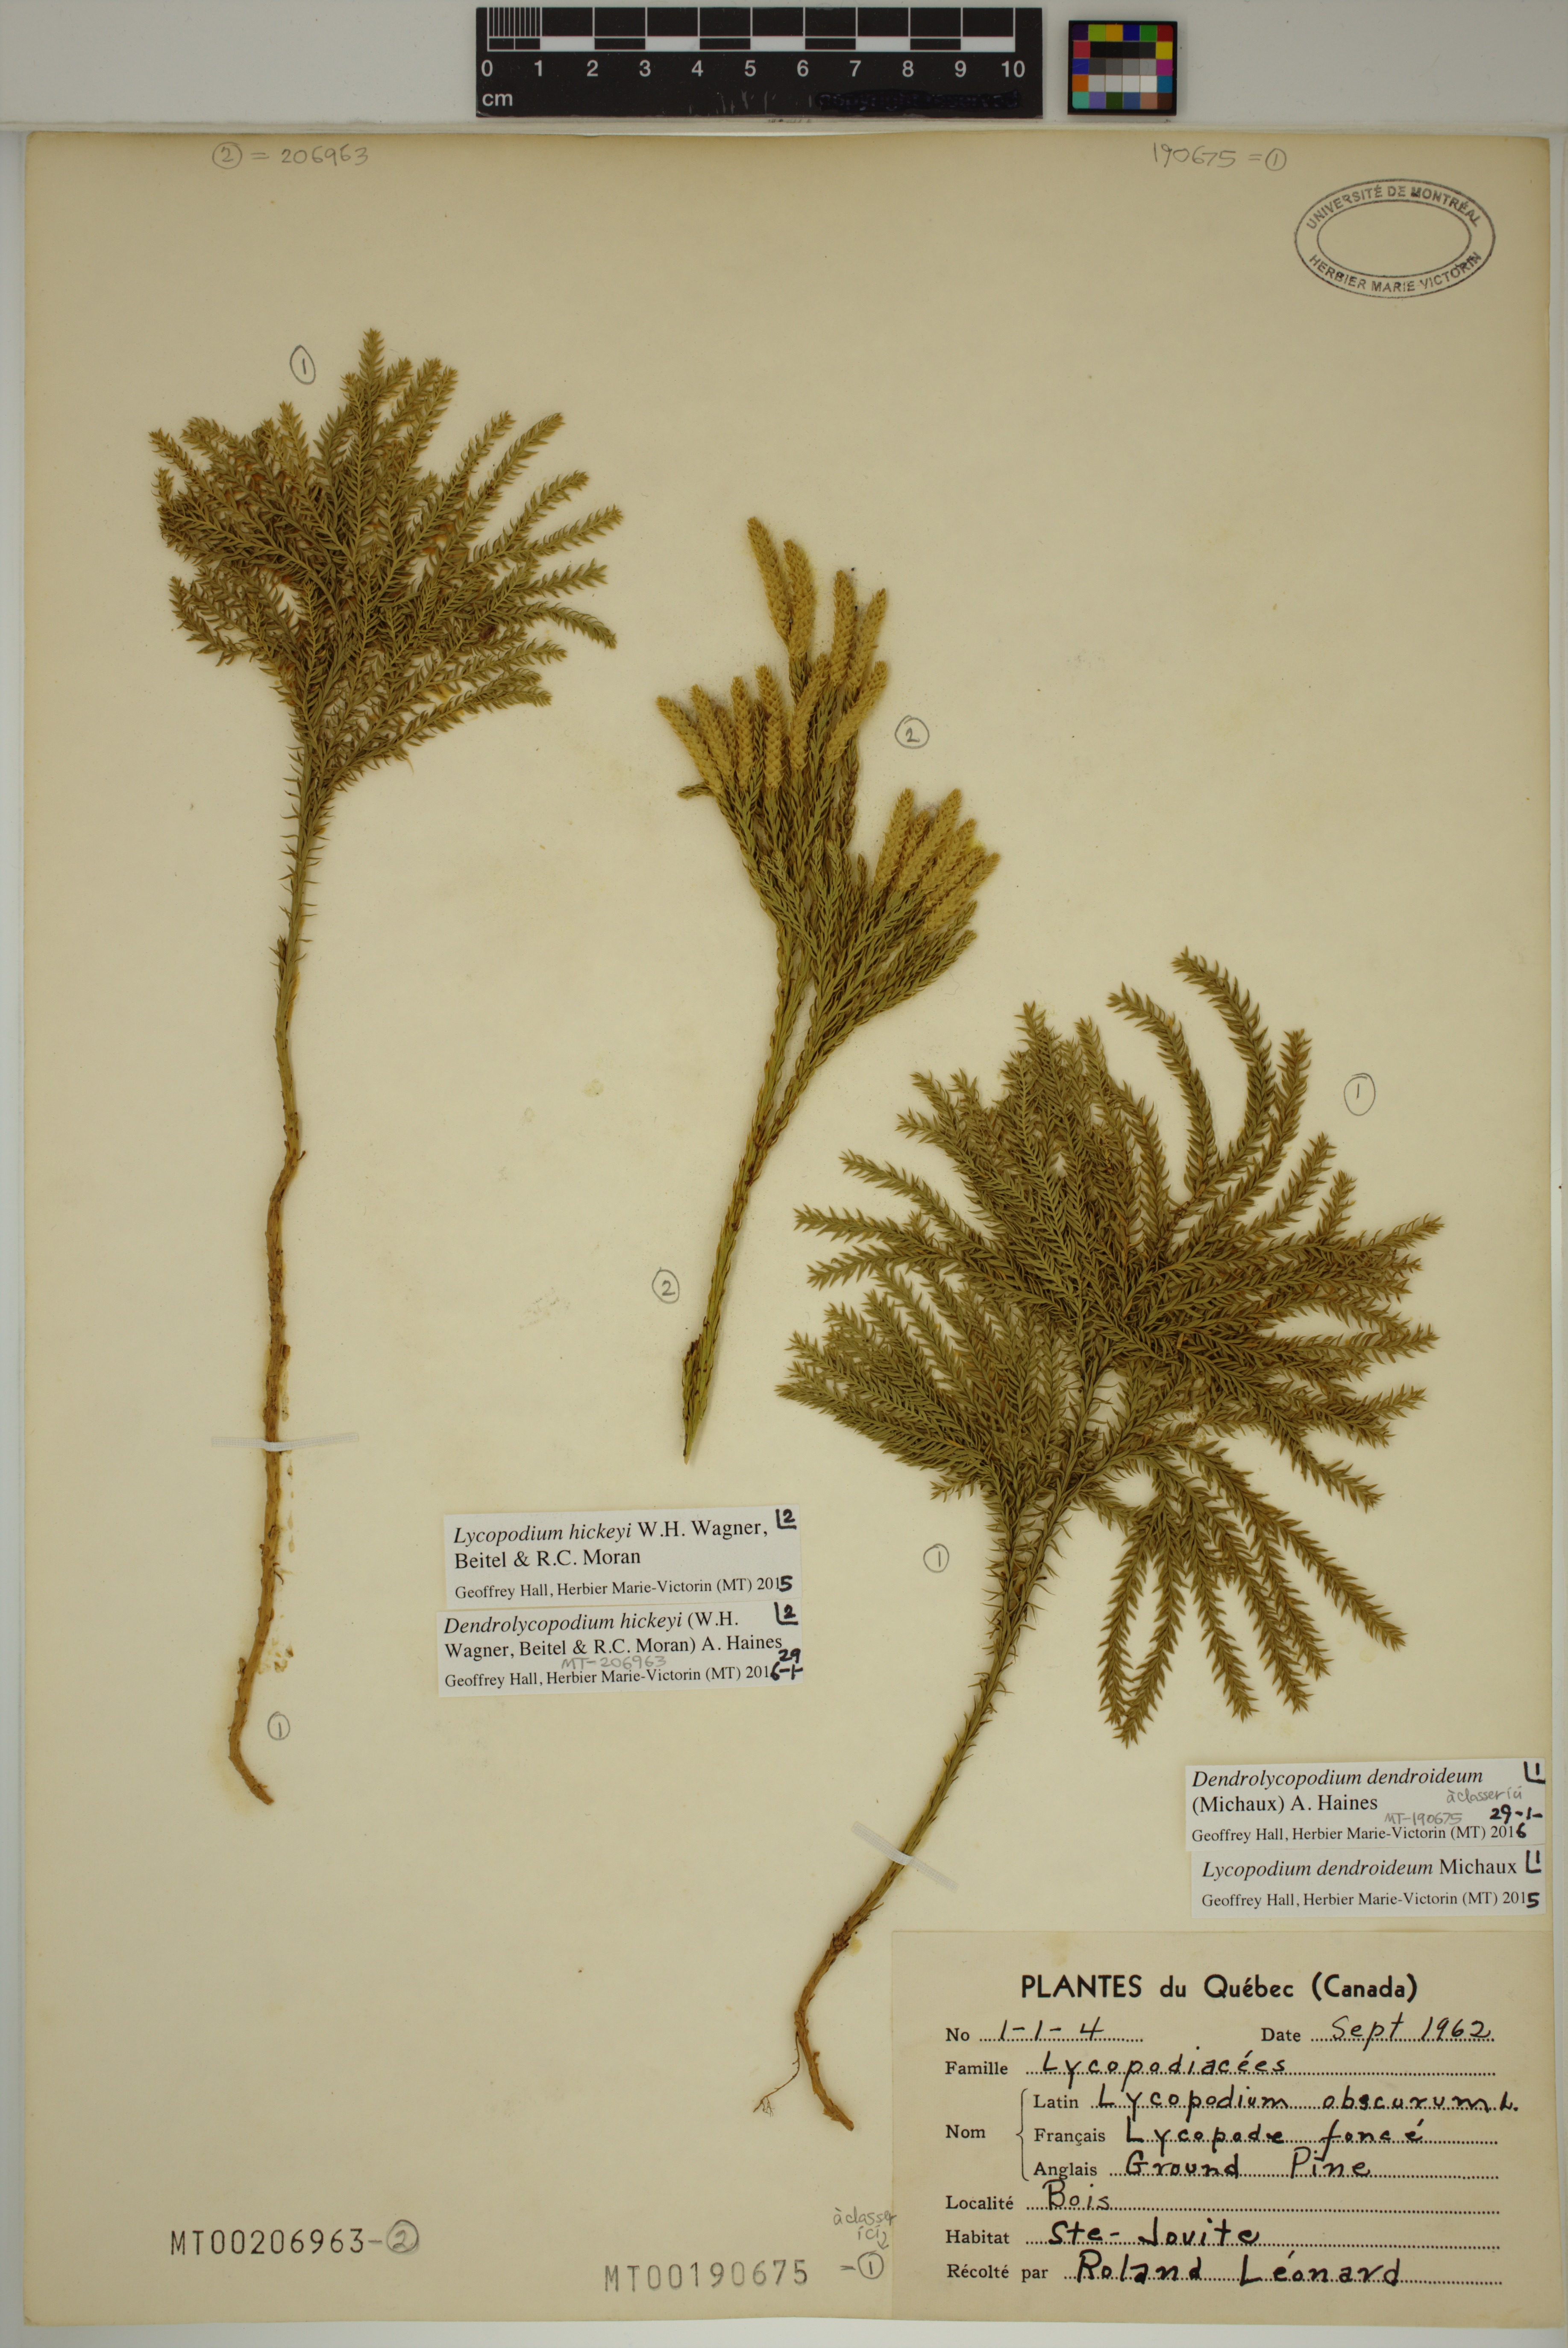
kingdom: Plantae
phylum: Tracheophyta
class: Lycopodiopsida
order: Lycopodiales
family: Lycopodiaceae
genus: Dendrolycopodium
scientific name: Dendrolycopodium hickeyi
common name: Hickey's clubmoss
